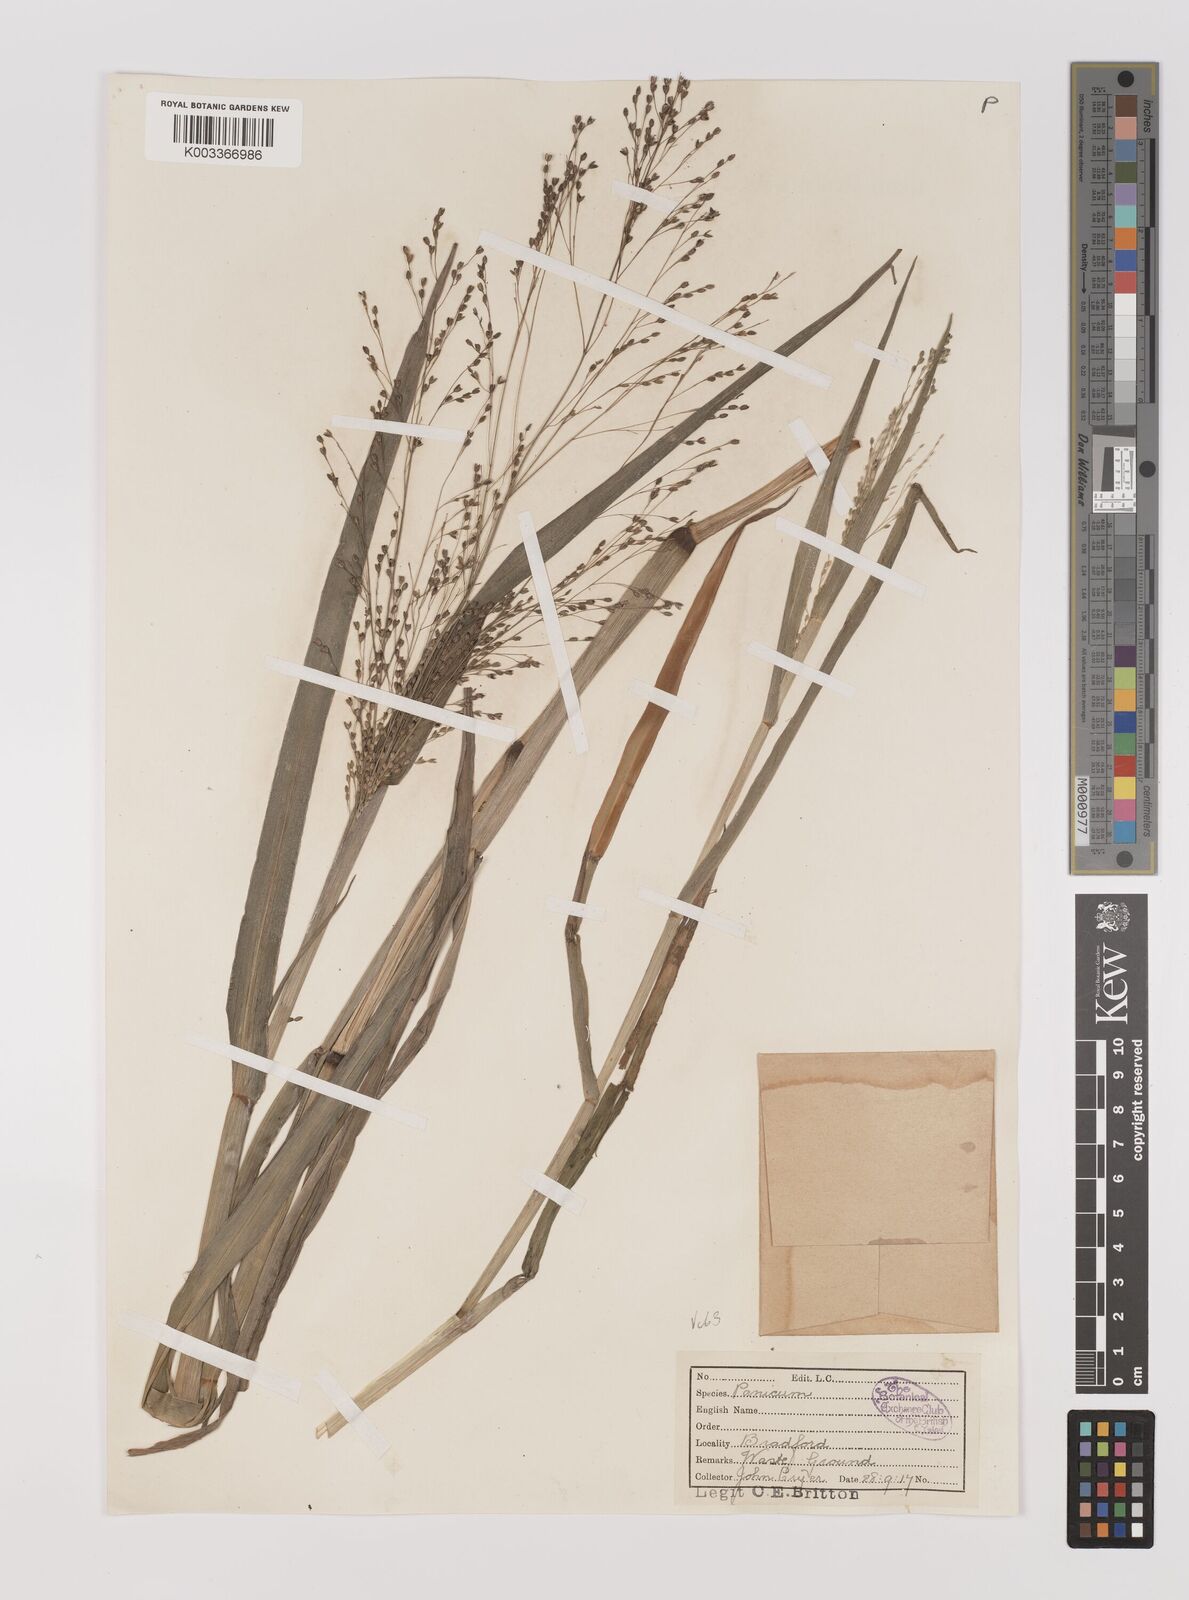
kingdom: Plantae
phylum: Tracheophyta
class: Liliopsida
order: Poales
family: Poaceae
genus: Panicum
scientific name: Panicum schinzii
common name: Sweet grass
